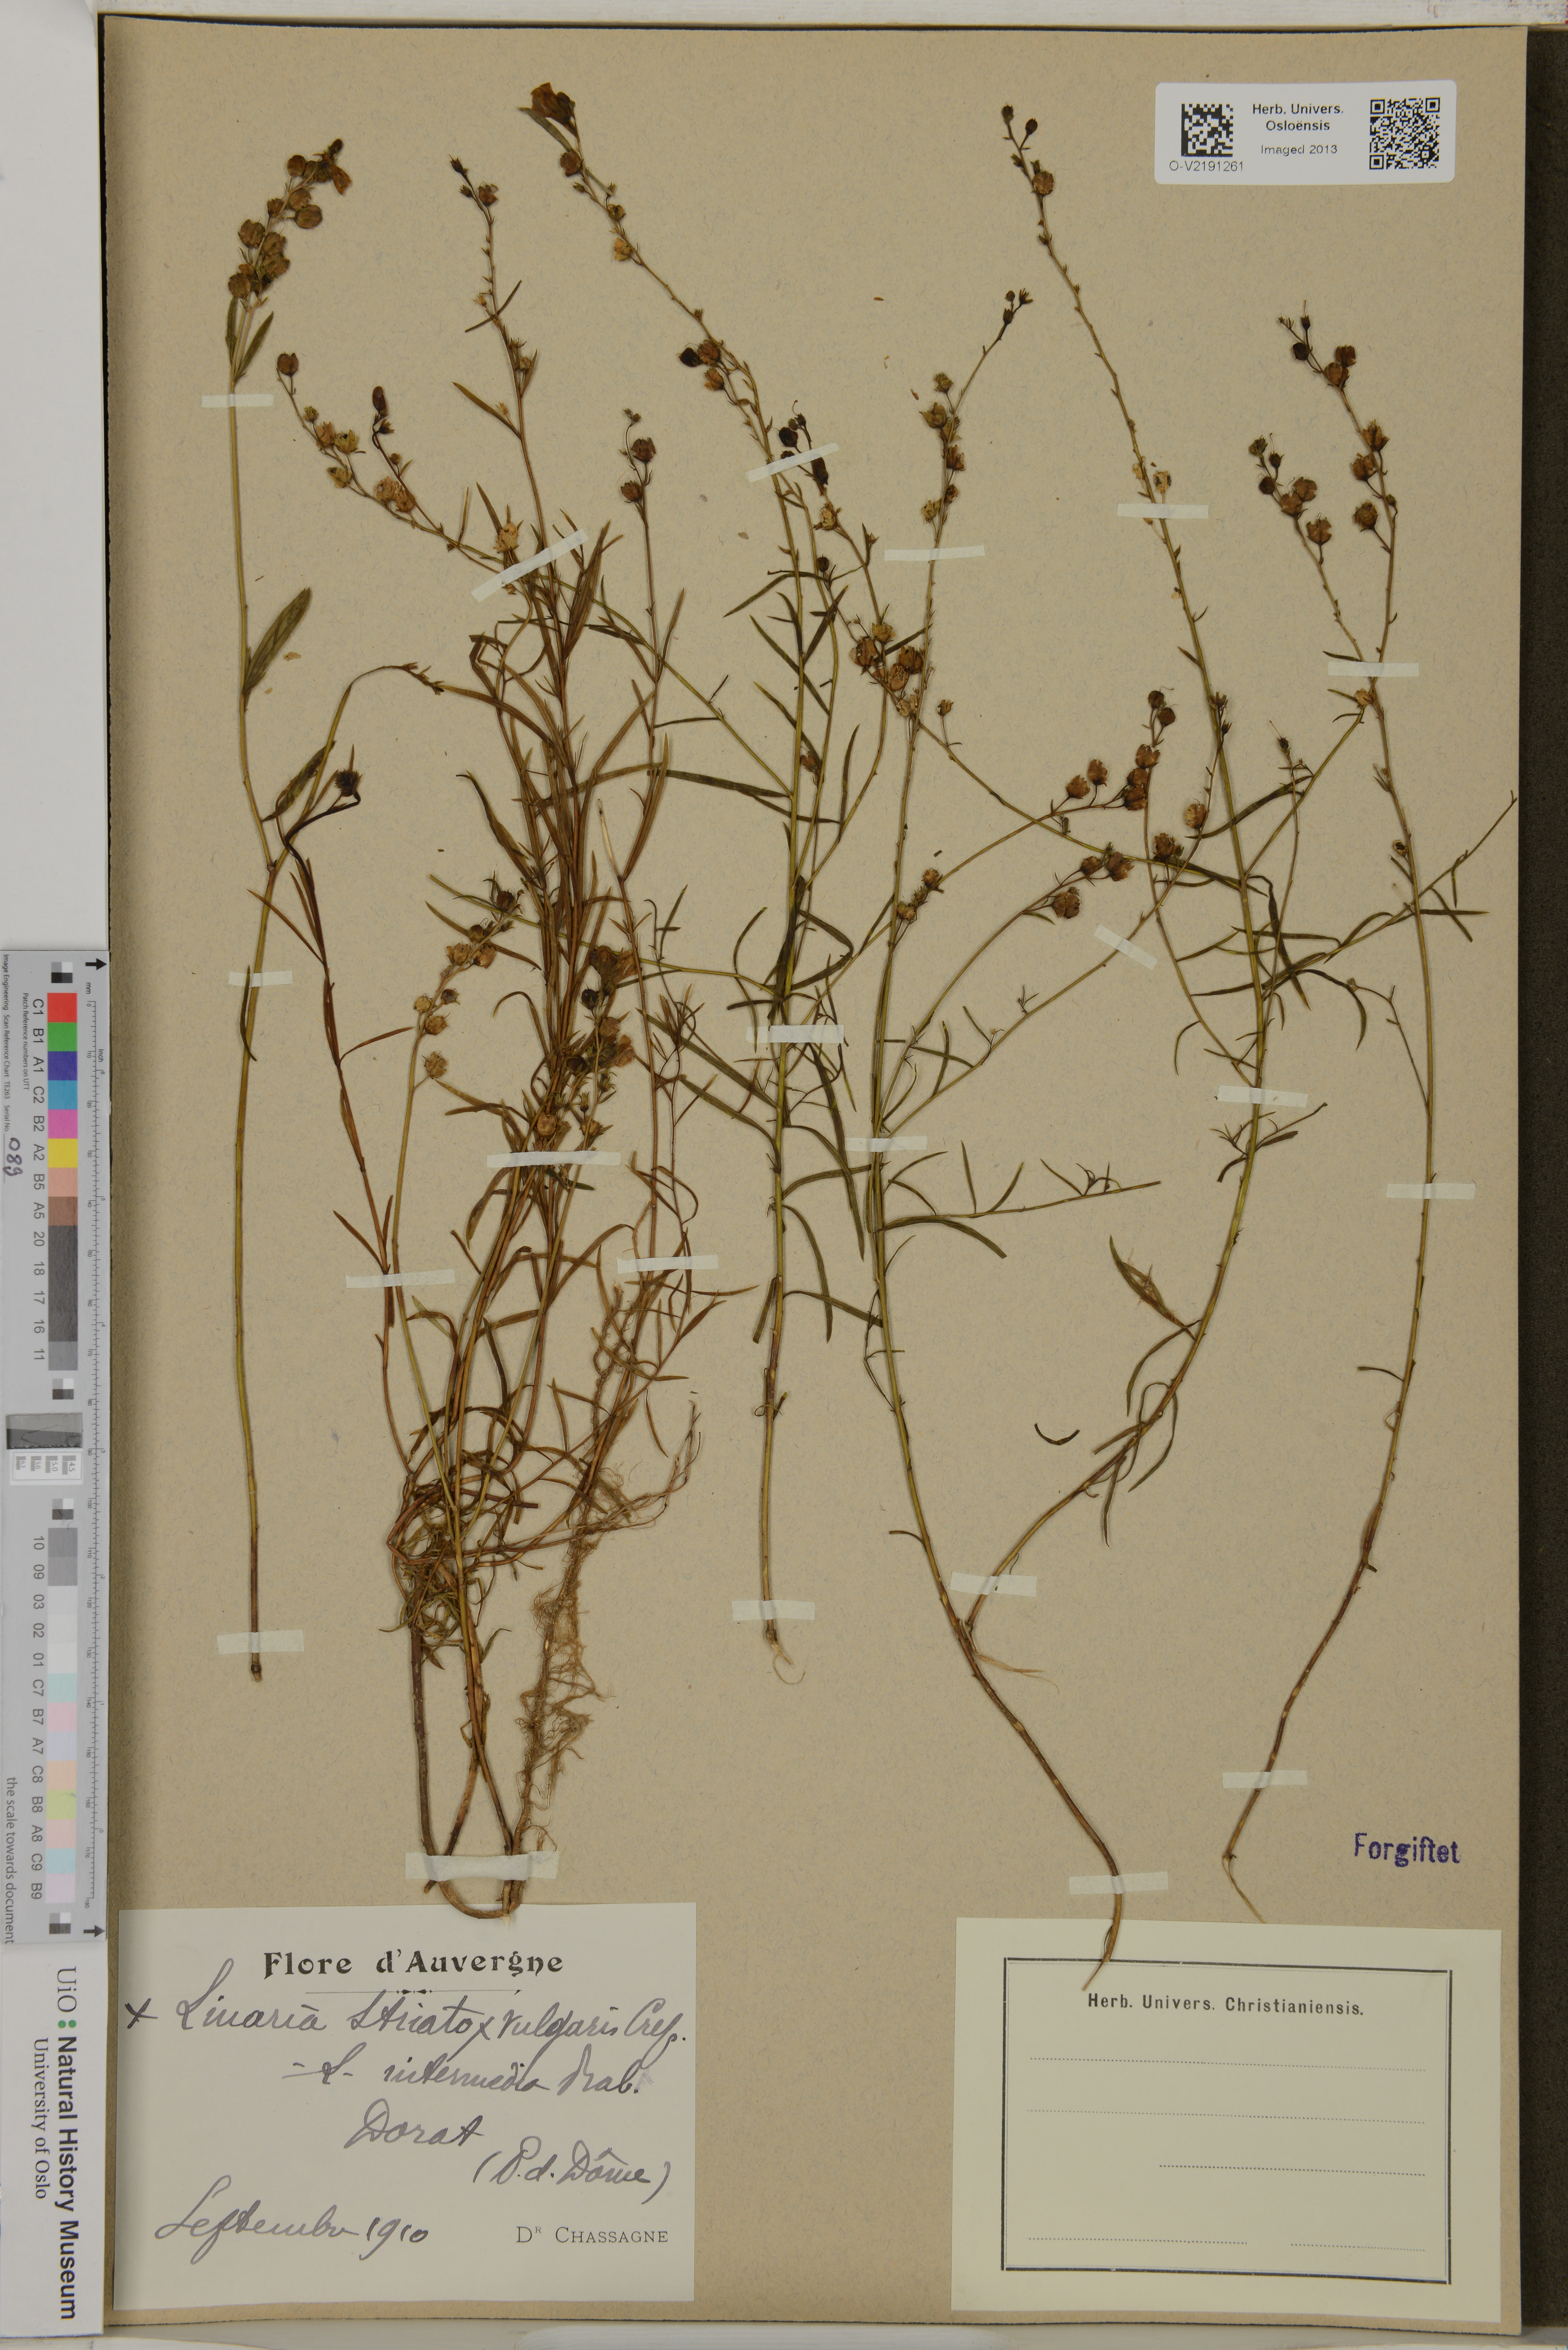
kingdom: Plantae
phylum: Tracheophyta
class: Magnoliopsida
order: Lamiales
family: Plantaginaceae
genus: Linaria
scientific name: Linaria
